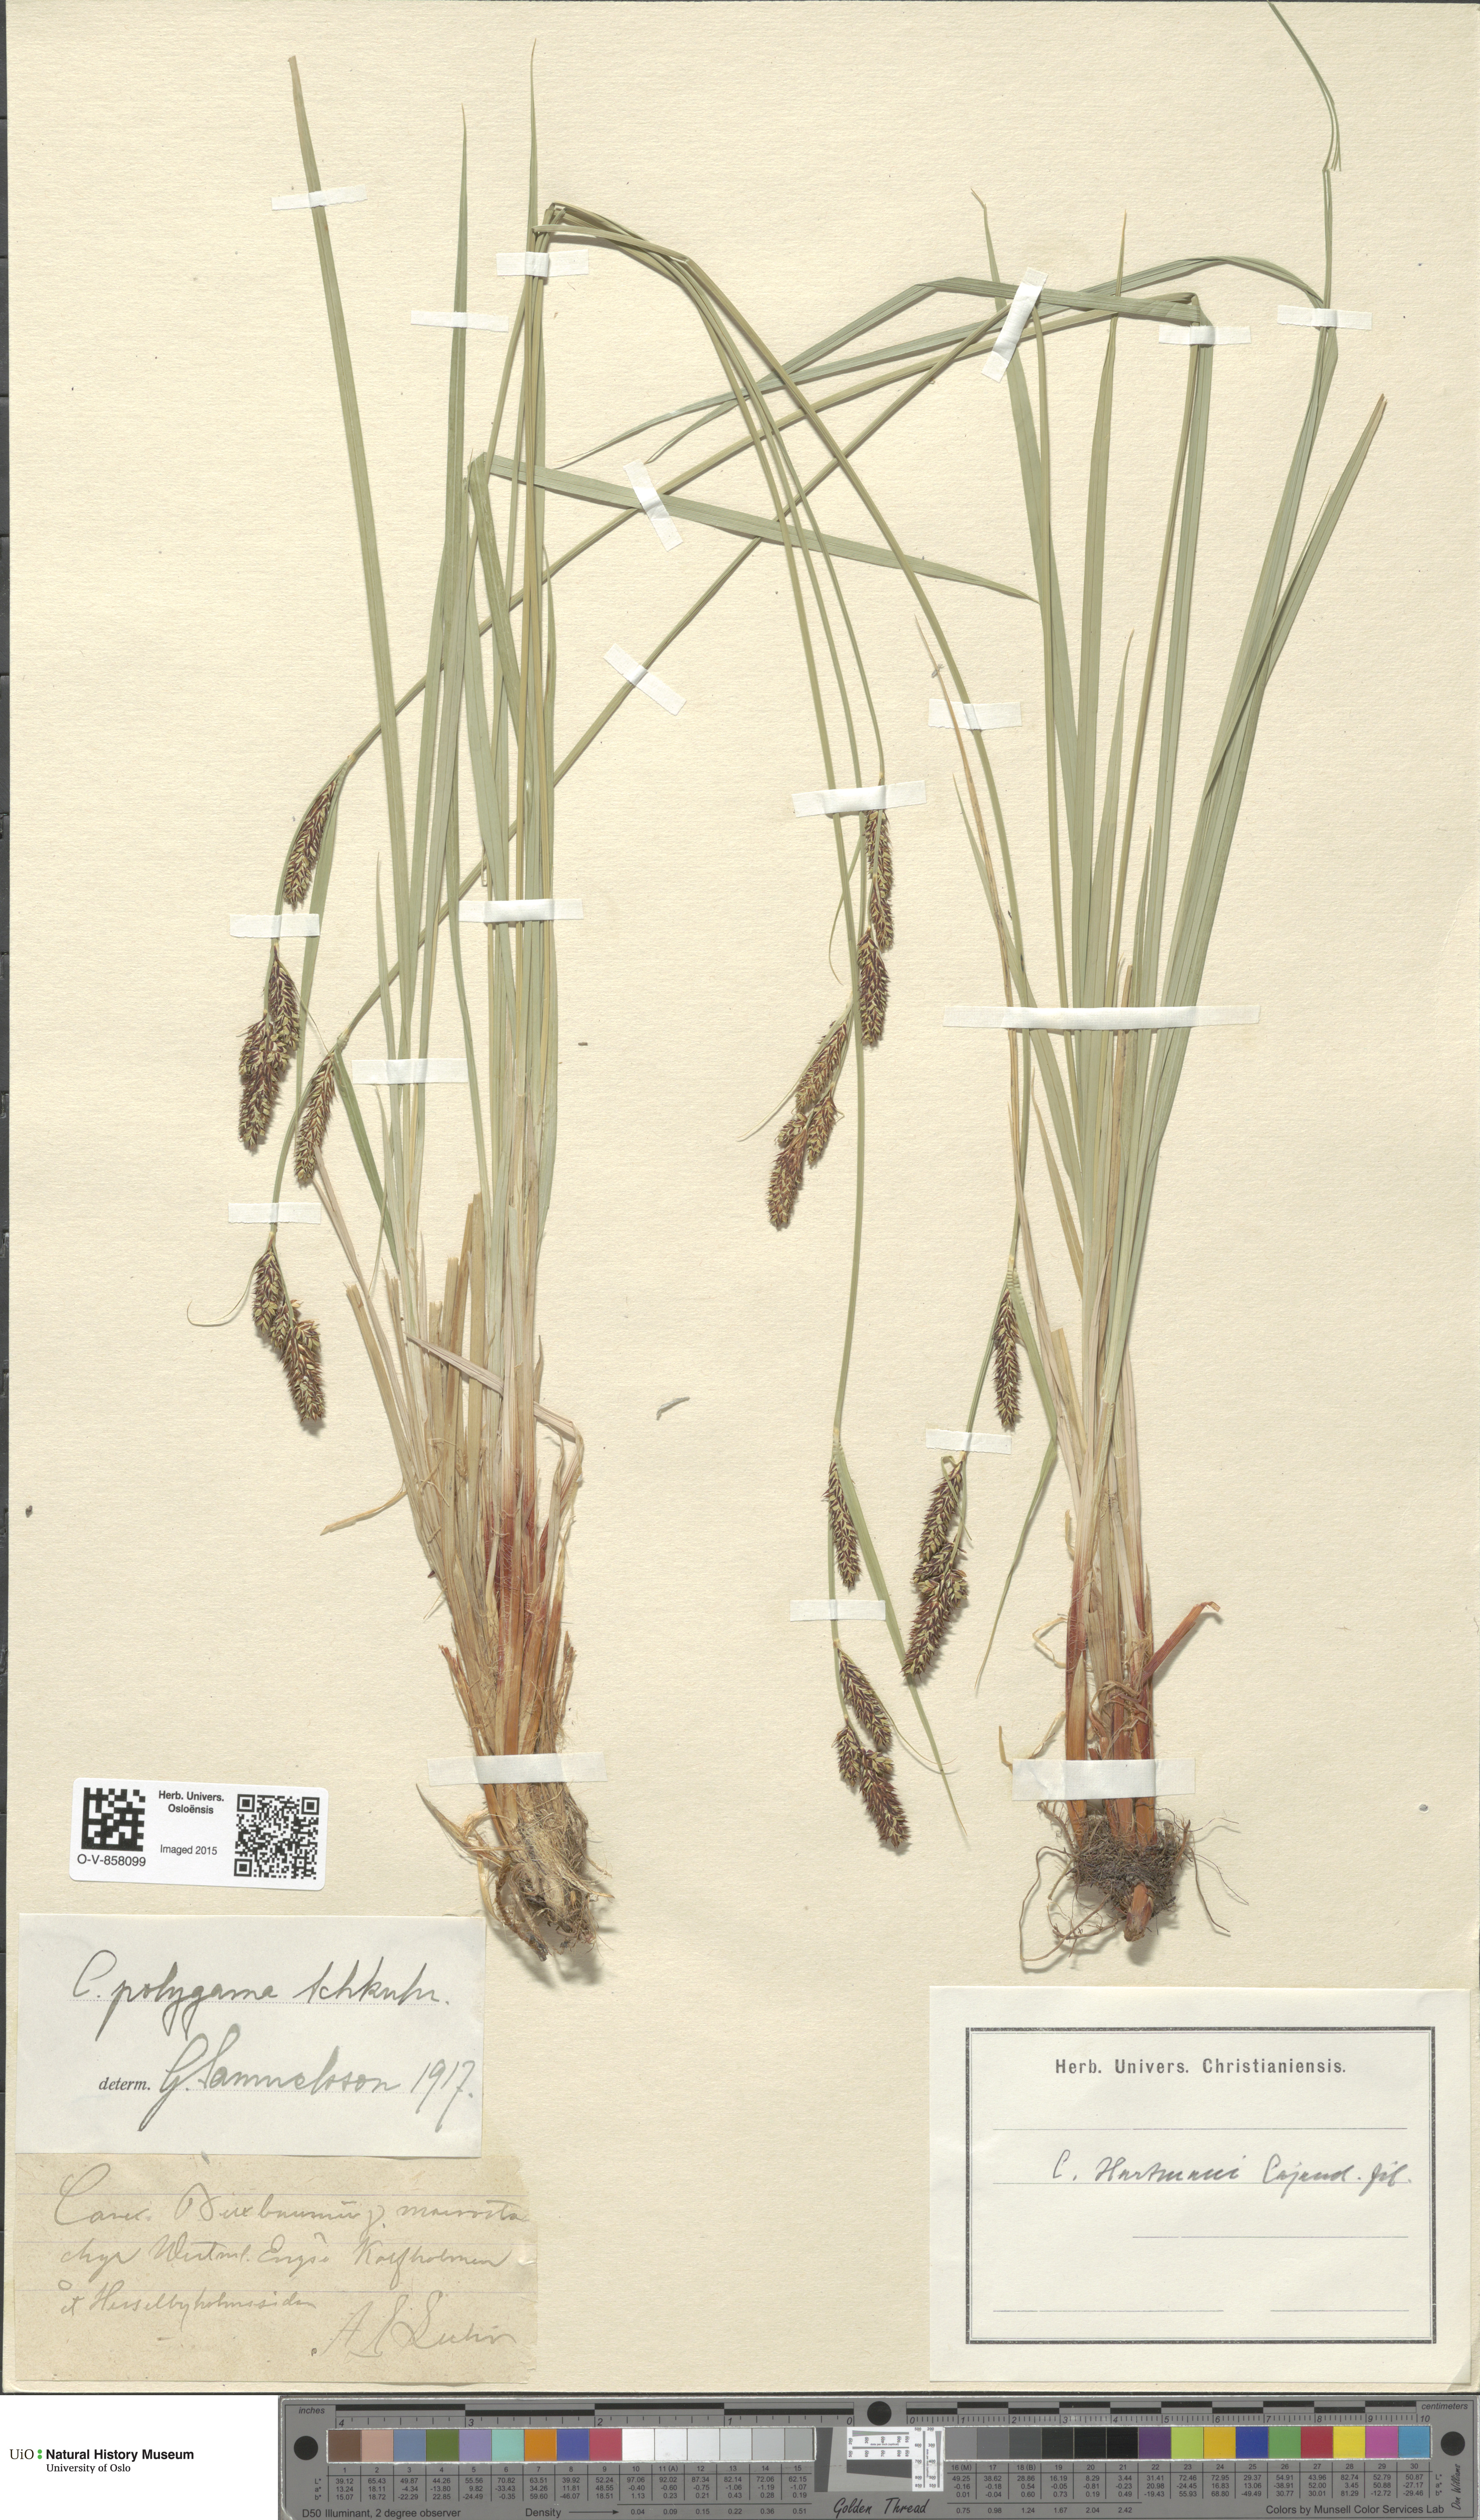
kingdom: Plantae
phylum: Tracheophyta
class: Liliopsida
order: Poales
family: Cyperaceae
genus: Carex
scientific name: Carex buxbaumii
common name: Club sedge
